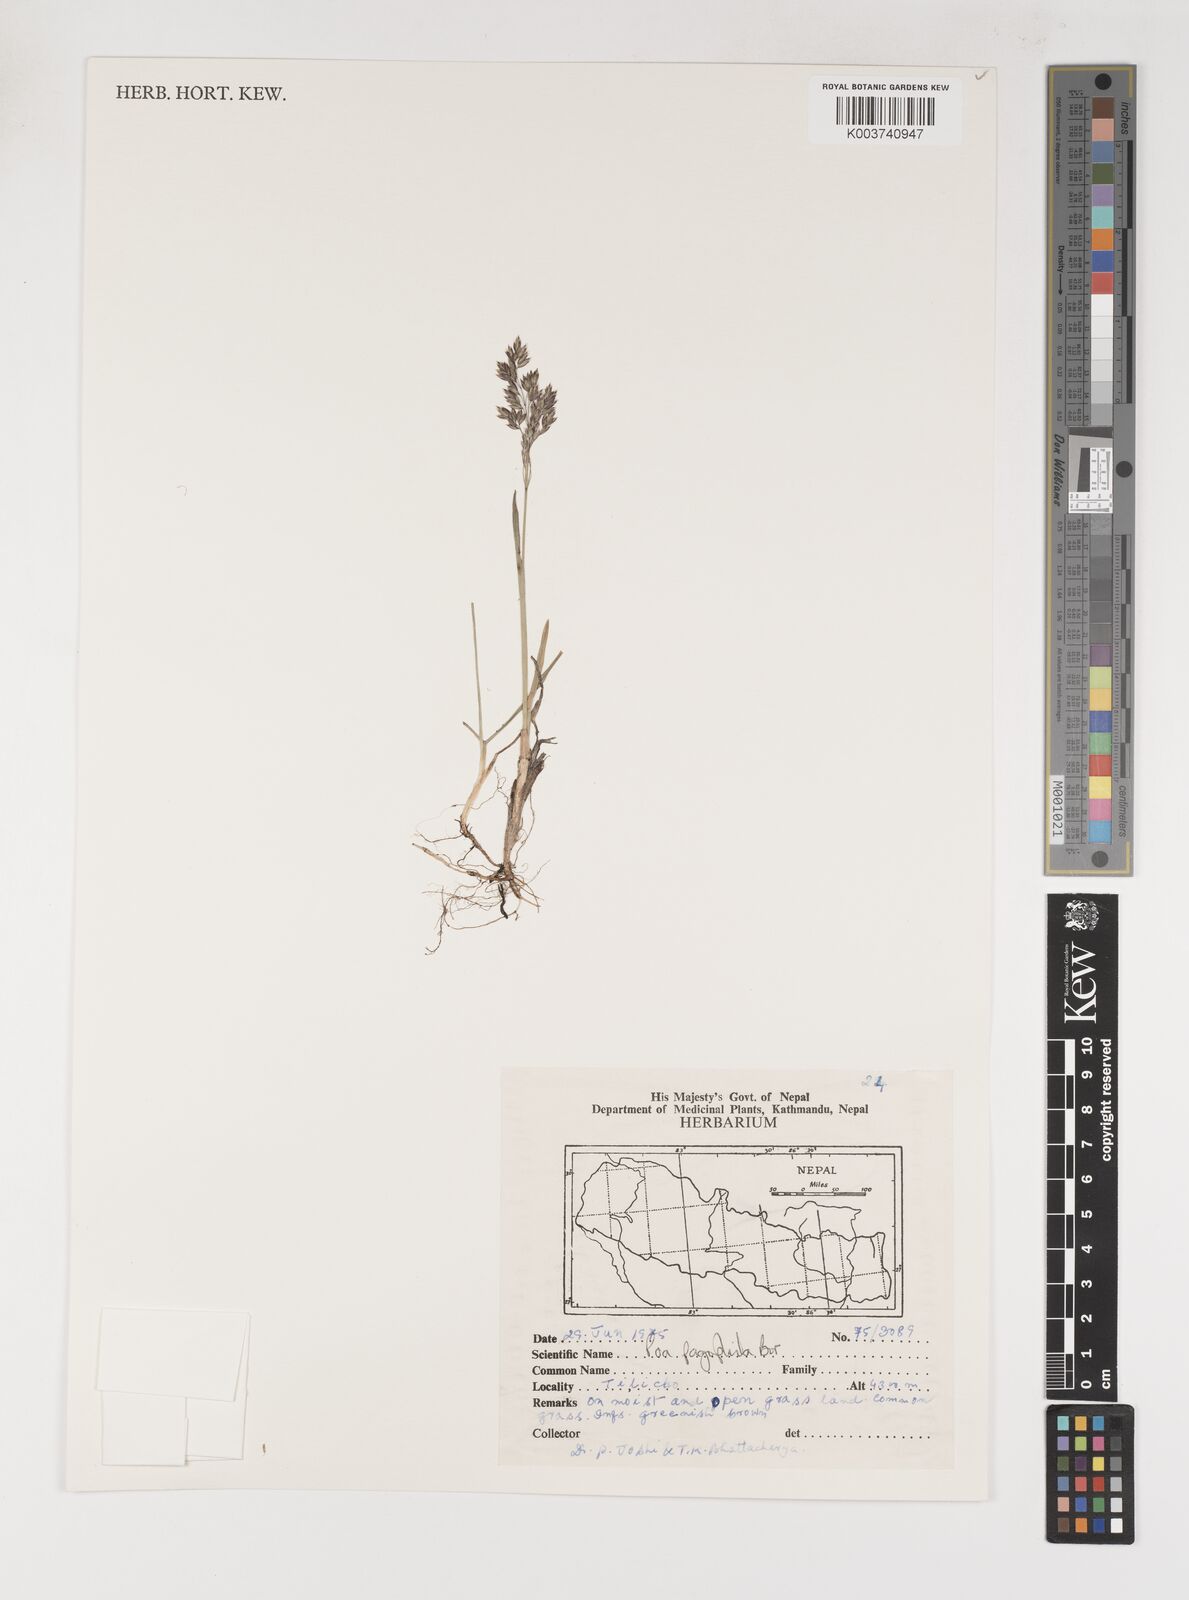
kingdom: Plantae
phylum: Tracheophyta
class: Liliopsida
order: Poales
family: Poaceae
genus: Poa
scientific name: Poa pagophila
